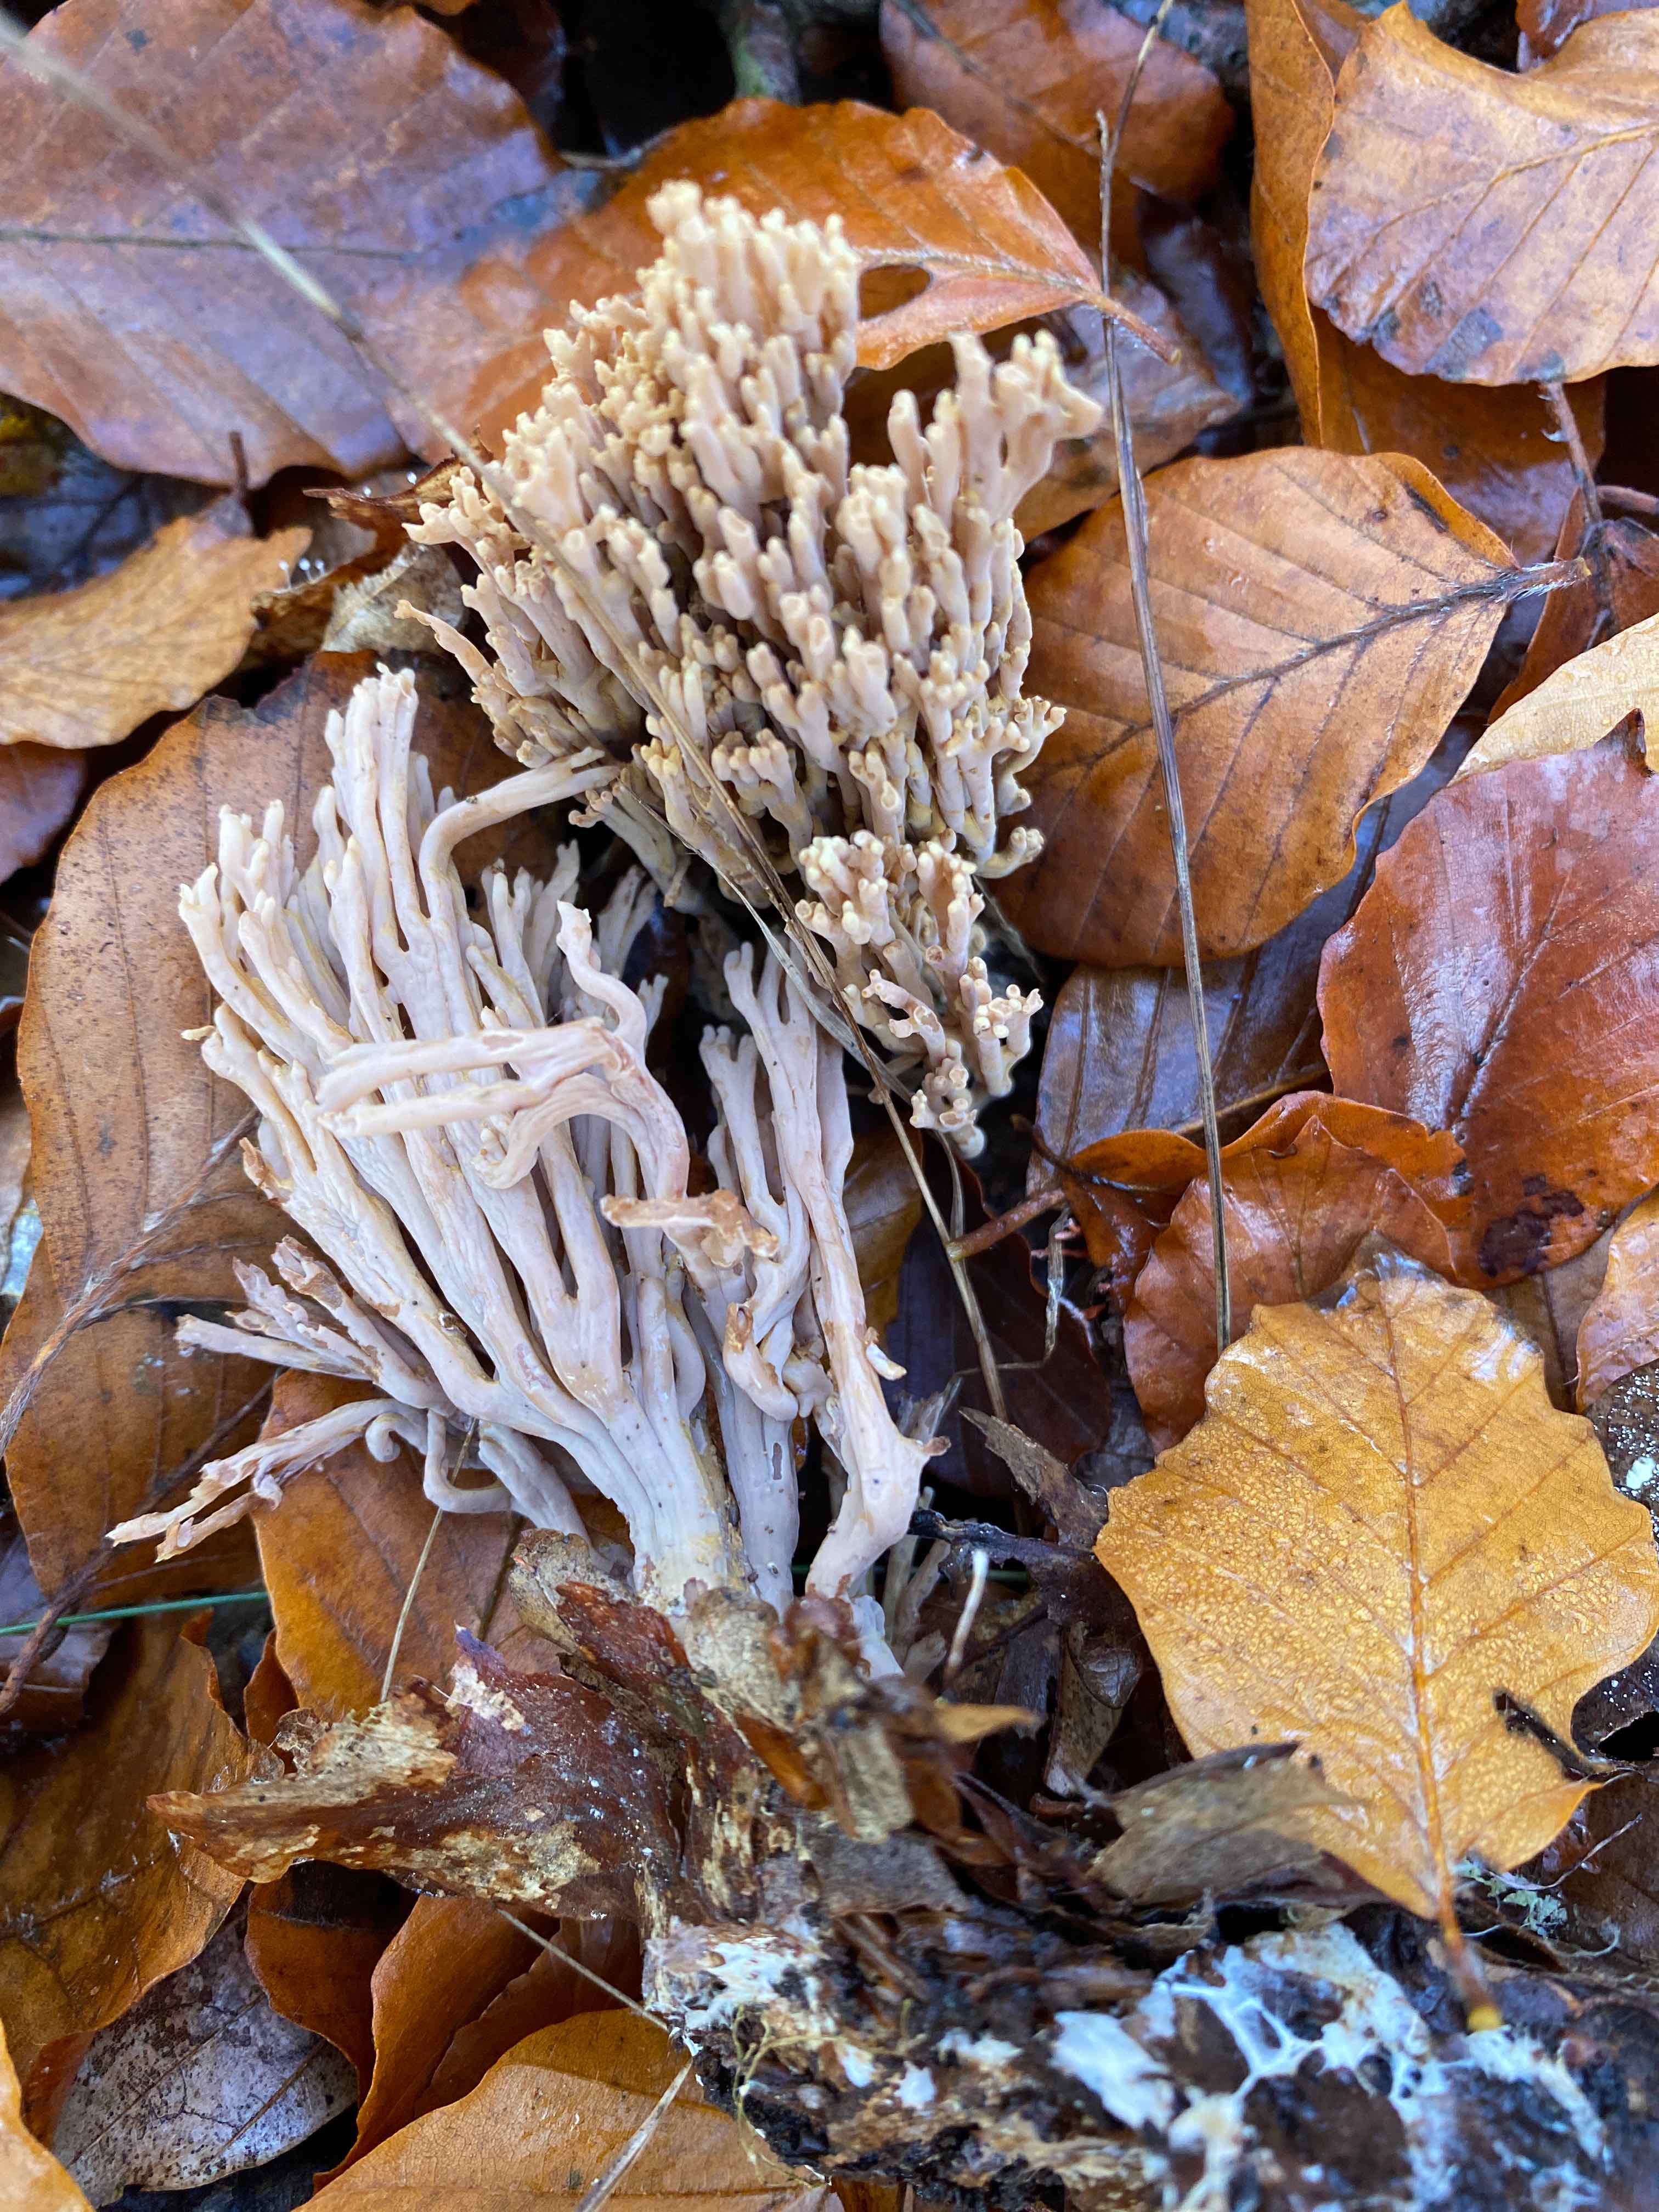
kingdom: Fungi
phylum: Basidiomycota
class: Agaricomycetes
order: Gomphales
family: Gomphaceae
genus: Ramaria
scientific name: Ramaria stricta
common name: rank koralsvamp
